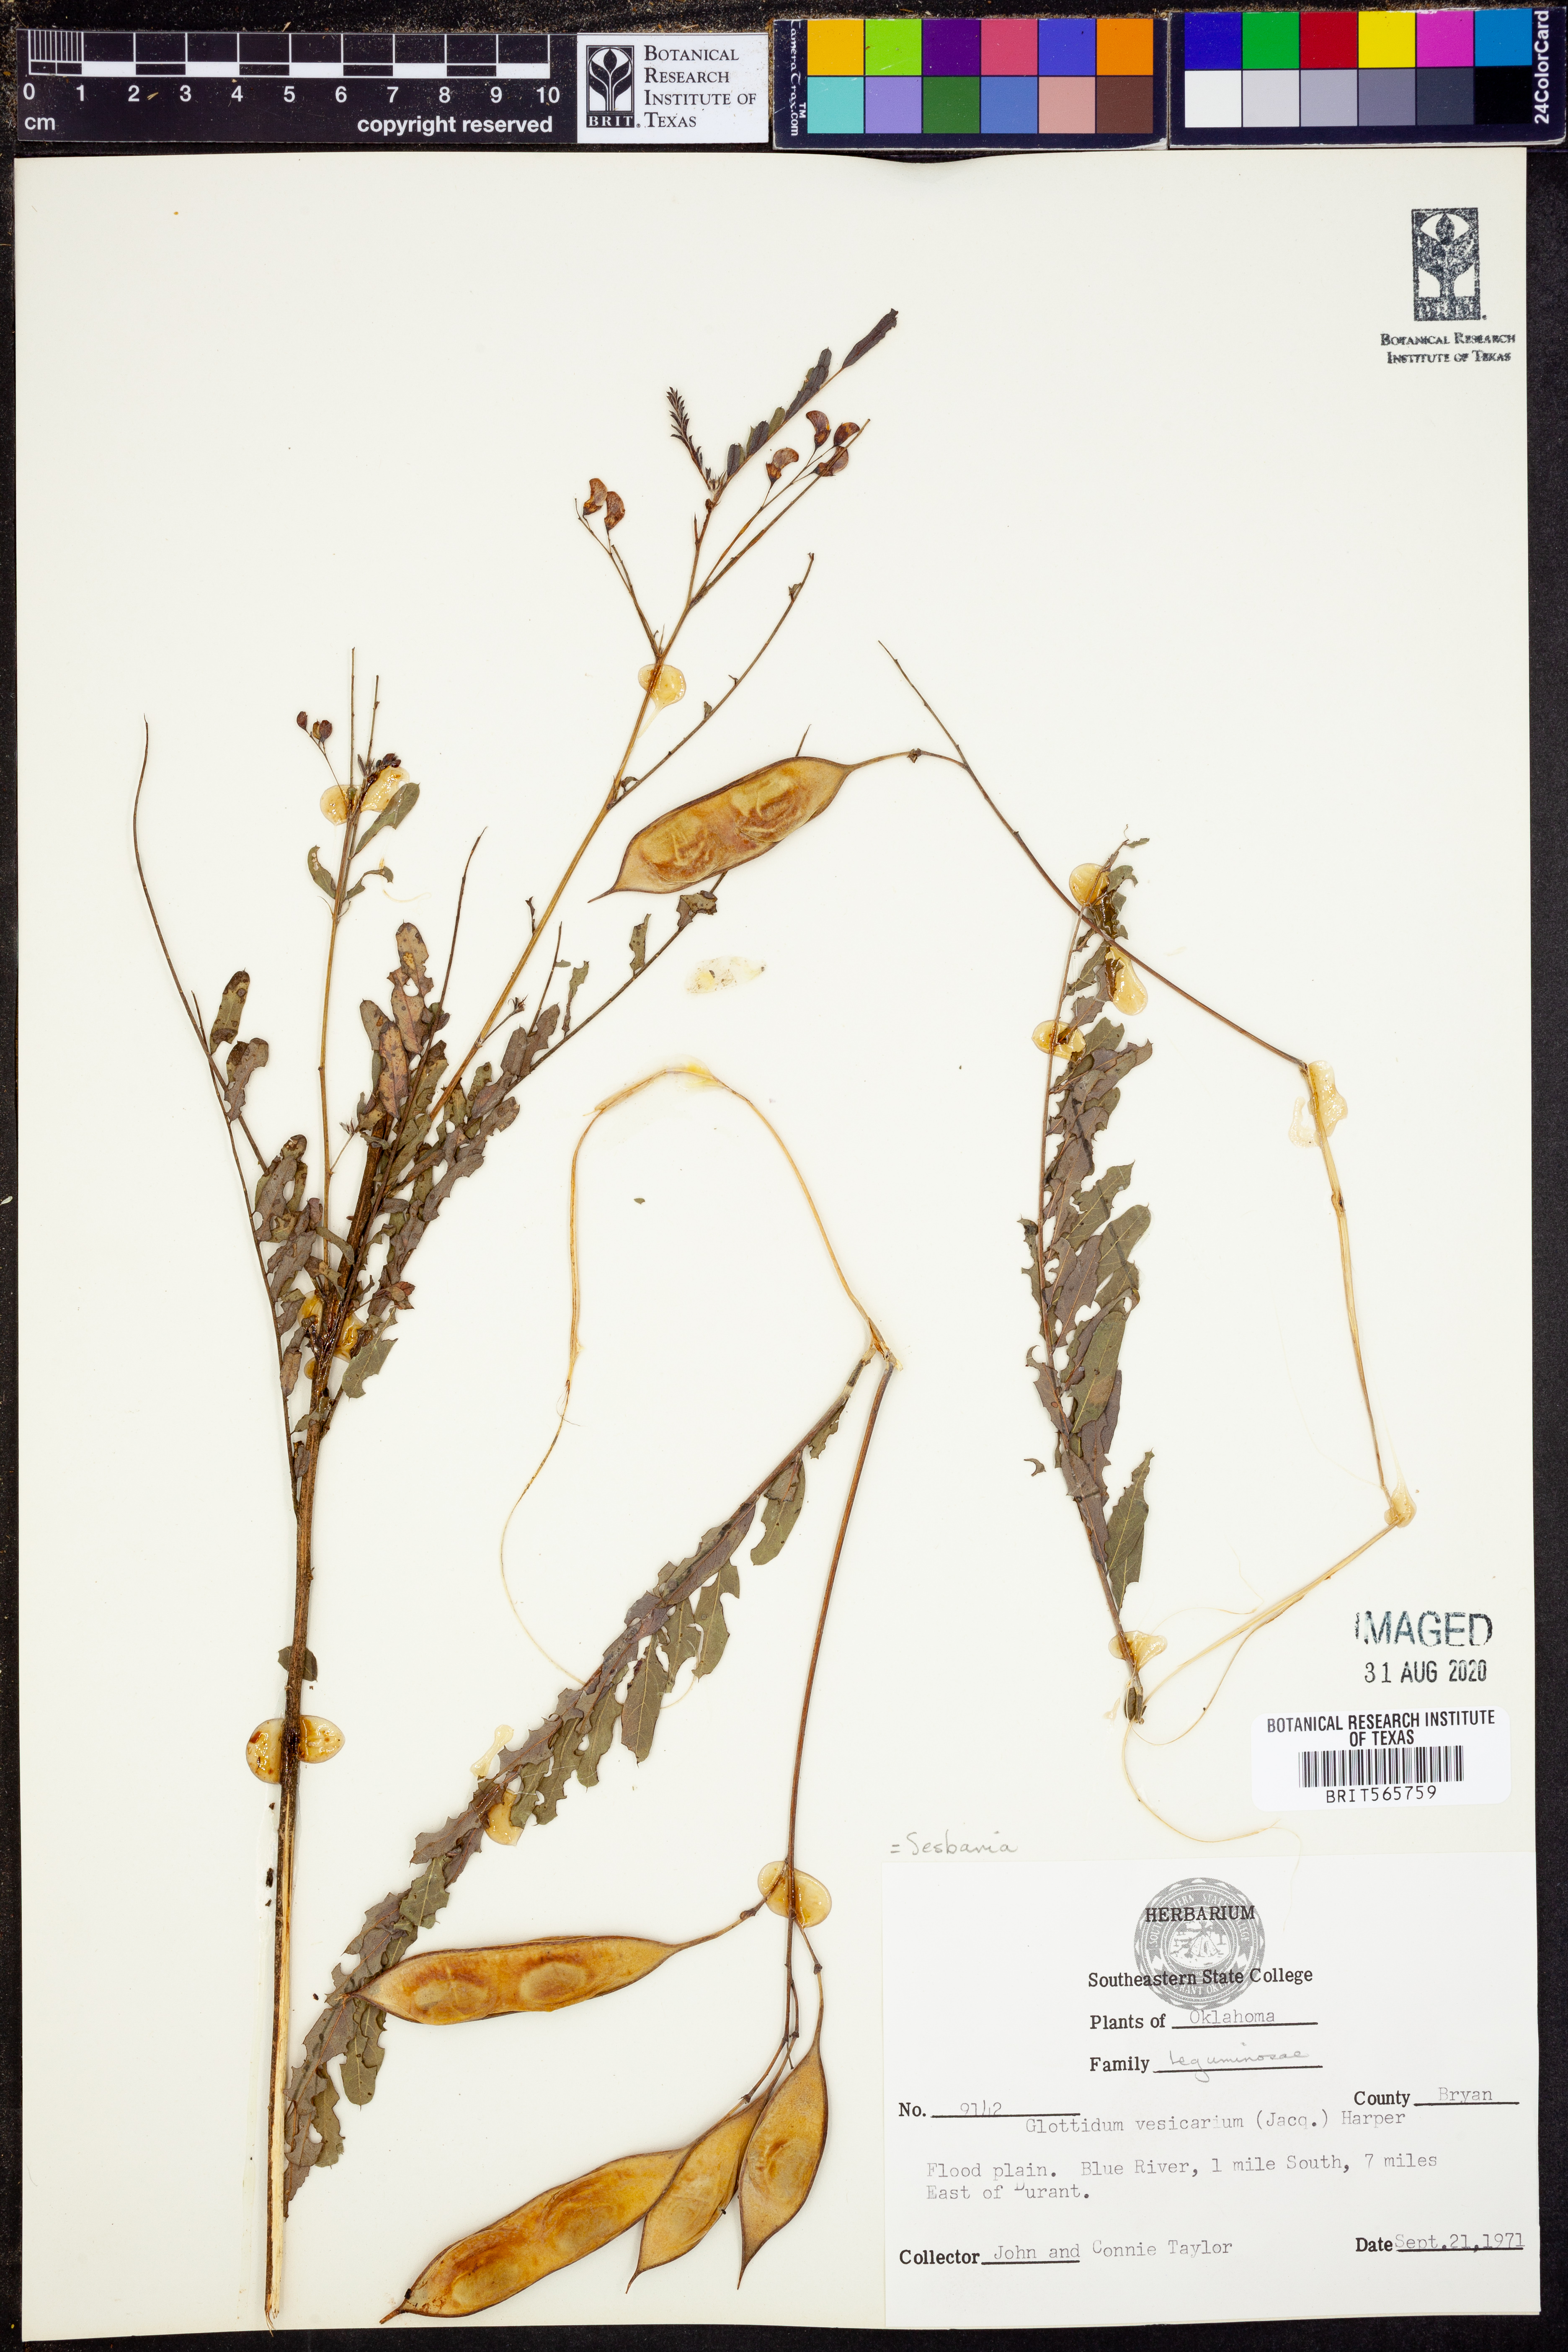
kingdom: Plantae
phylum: Tracheophyta
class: Magnoliopsida
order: Fabales
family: Fabaceae
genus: Sesbania
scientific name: Sesbania vesicaria
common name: Bagpod
